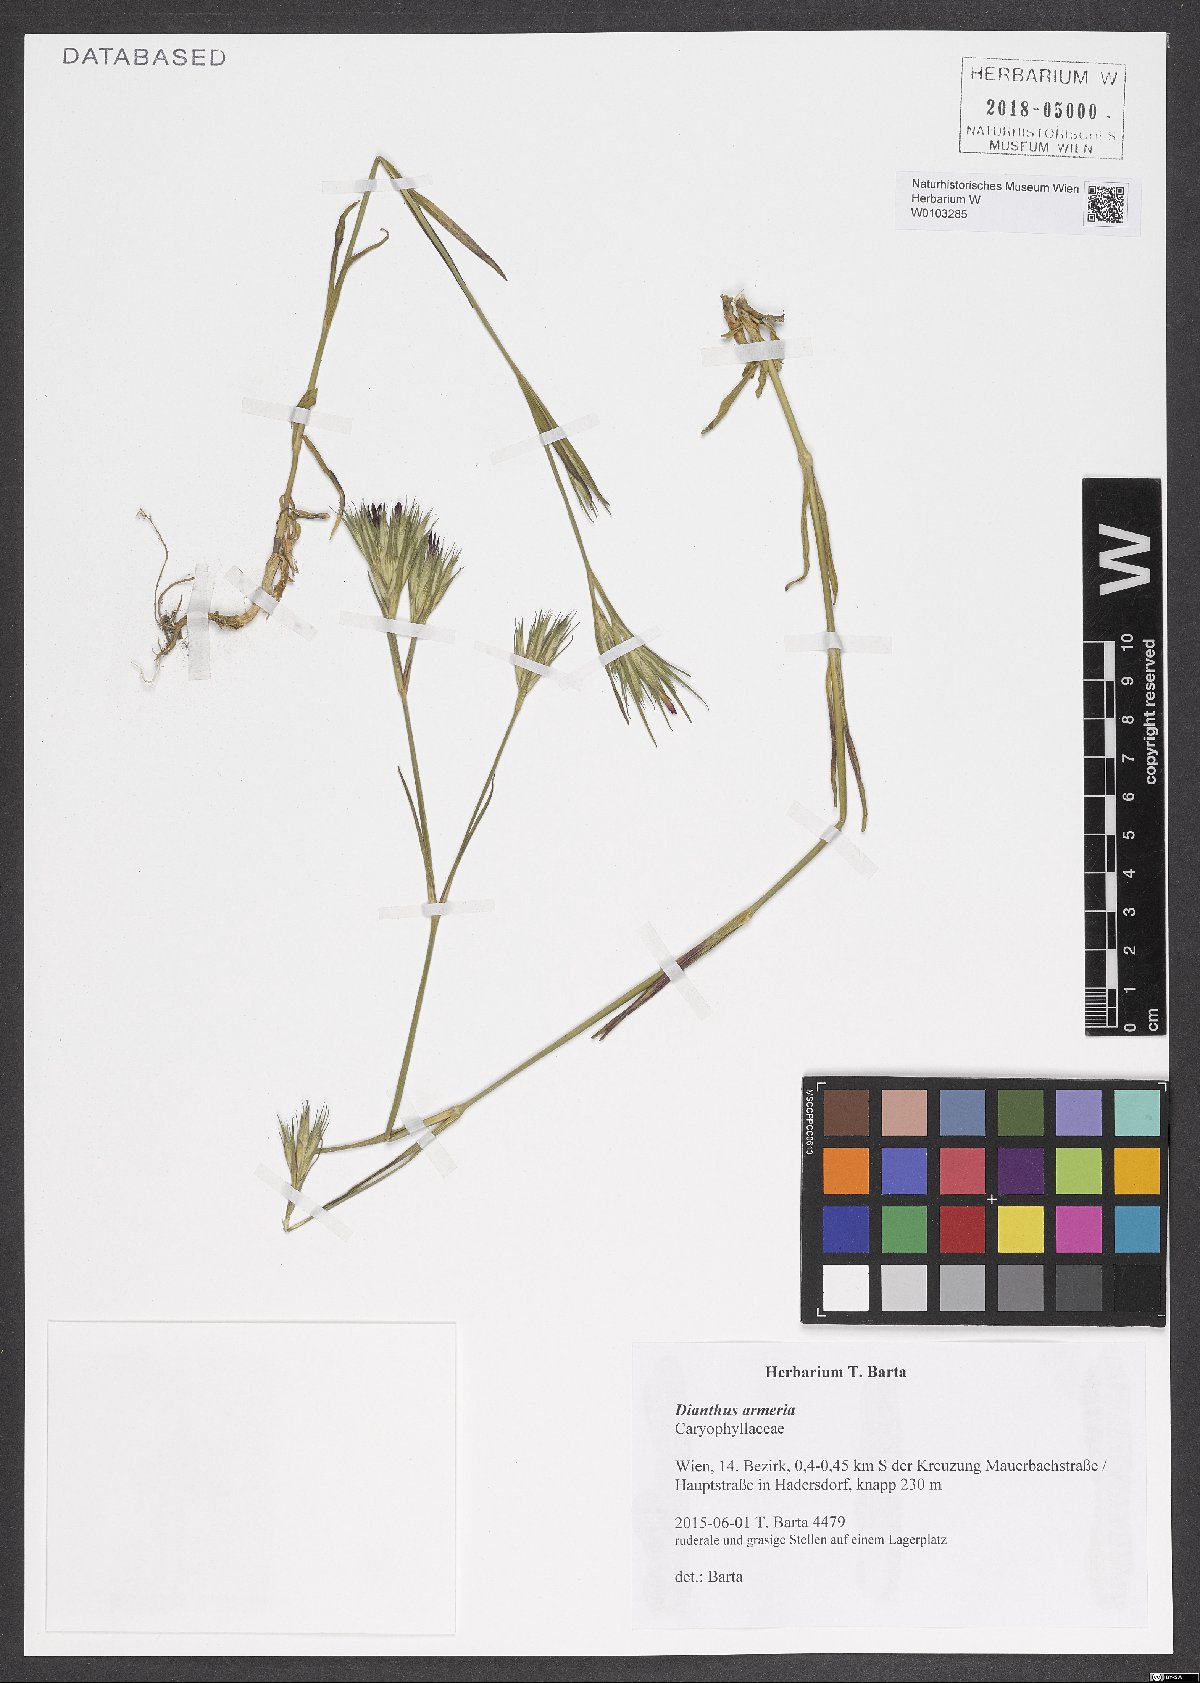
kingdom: Plantae
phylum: Tracheophyta
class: Magnoliopsida
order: Caryophyllales
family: Caryophyllaceae
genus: Dianthus
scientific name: Dianthus armeria
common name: Deptford pink
